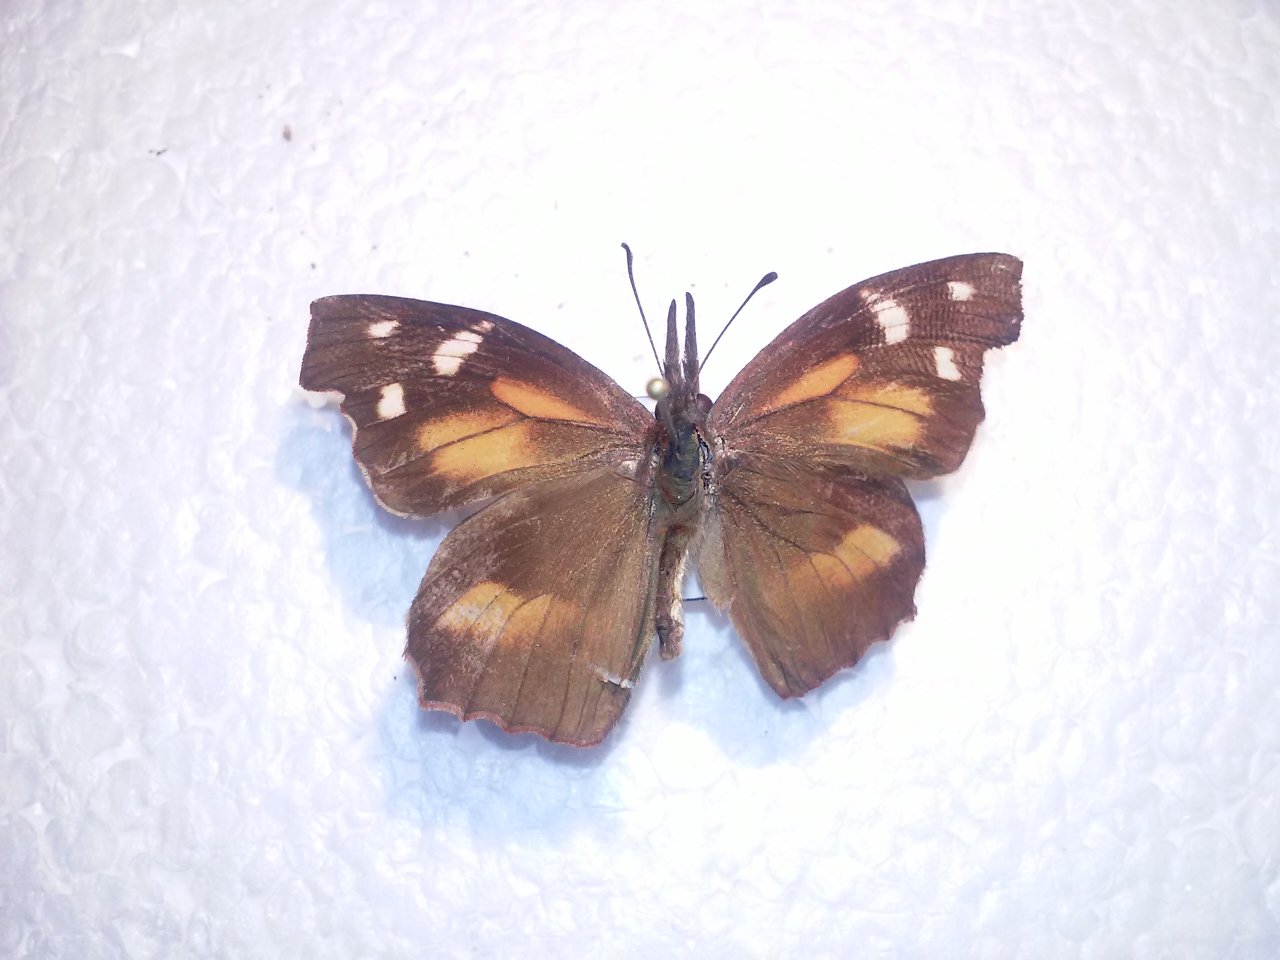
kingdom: Animalia
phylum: Arthropoda
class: Insecta
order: Lepidoptera
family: Nymphalidae
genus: Libytheana
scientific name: Libytheana carinenta
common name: American Snout
